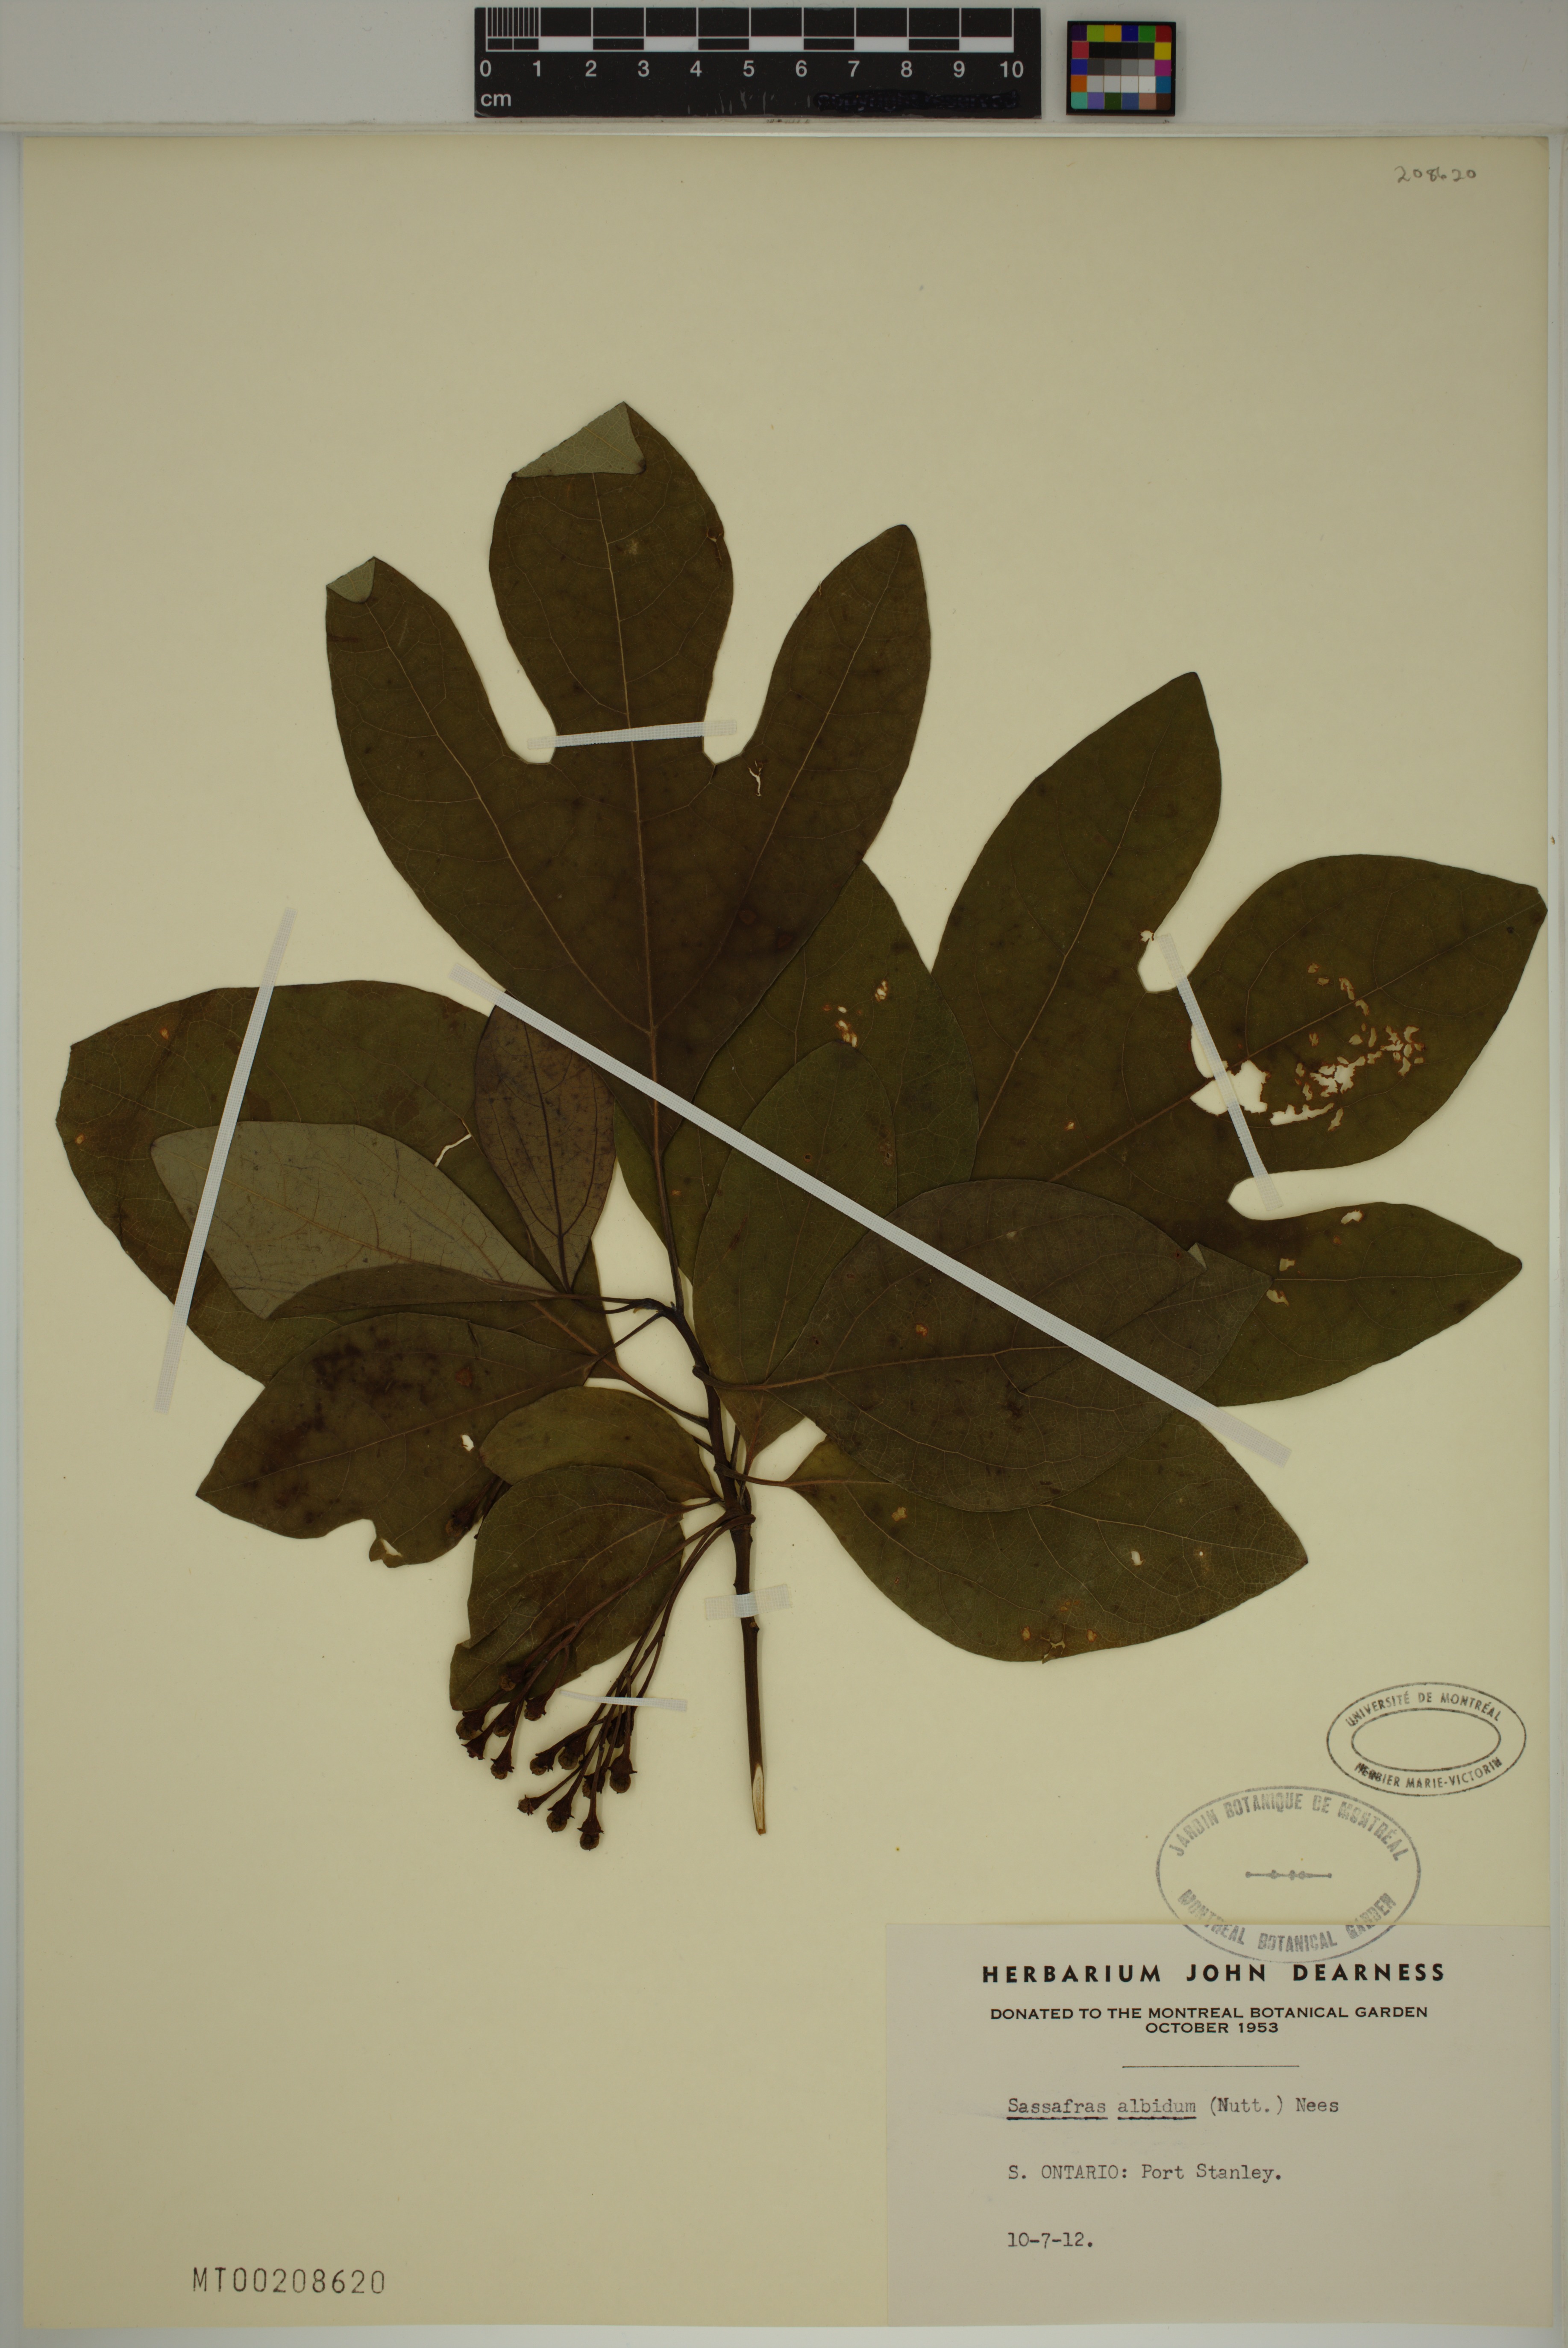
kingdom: Plantae
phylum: Tracheophyta
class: Magnoliopsida
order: Laurales
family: Lauraceae
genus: Sassafras
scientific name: Sassafras albidum
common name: Sassafras
